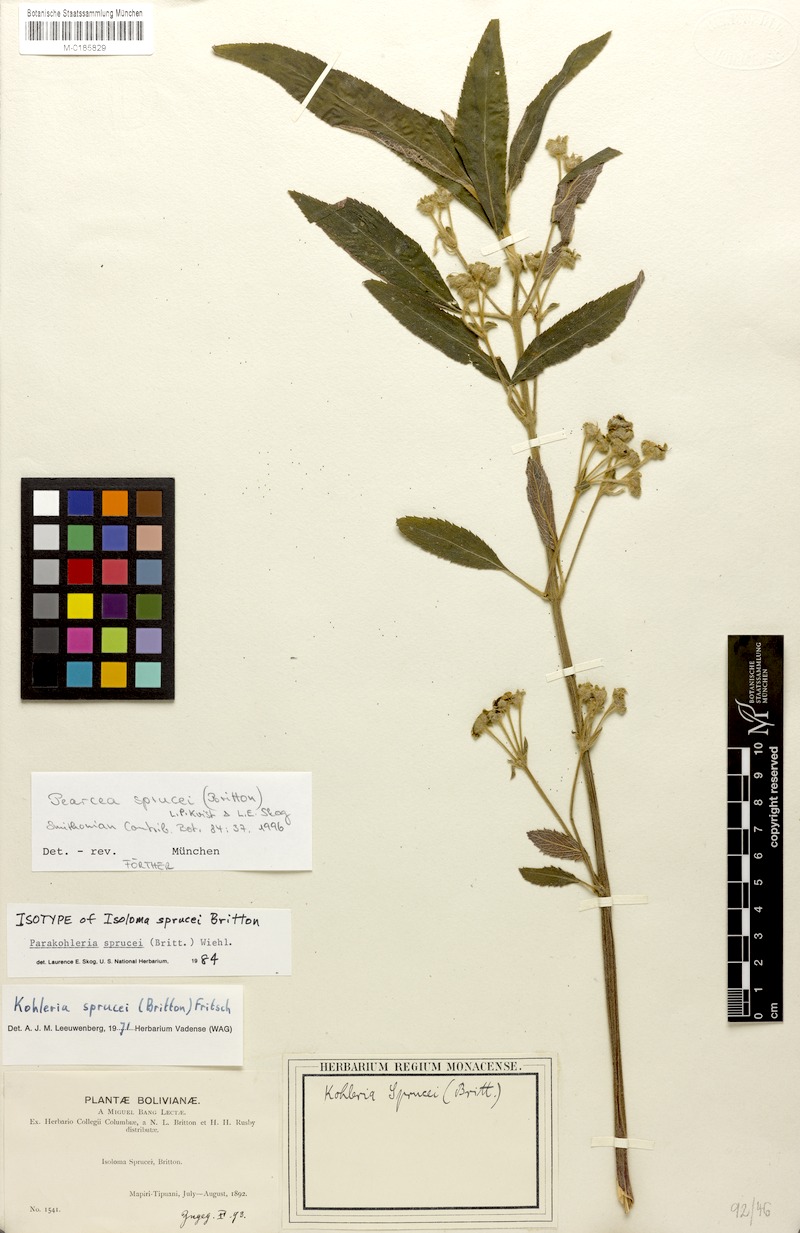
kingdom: Plantae
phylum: Tracheophyta
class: Magnoliopsida
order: Lamiales
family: Gesneriaceae
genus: Pearcea
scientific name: Pearcea sprucei
